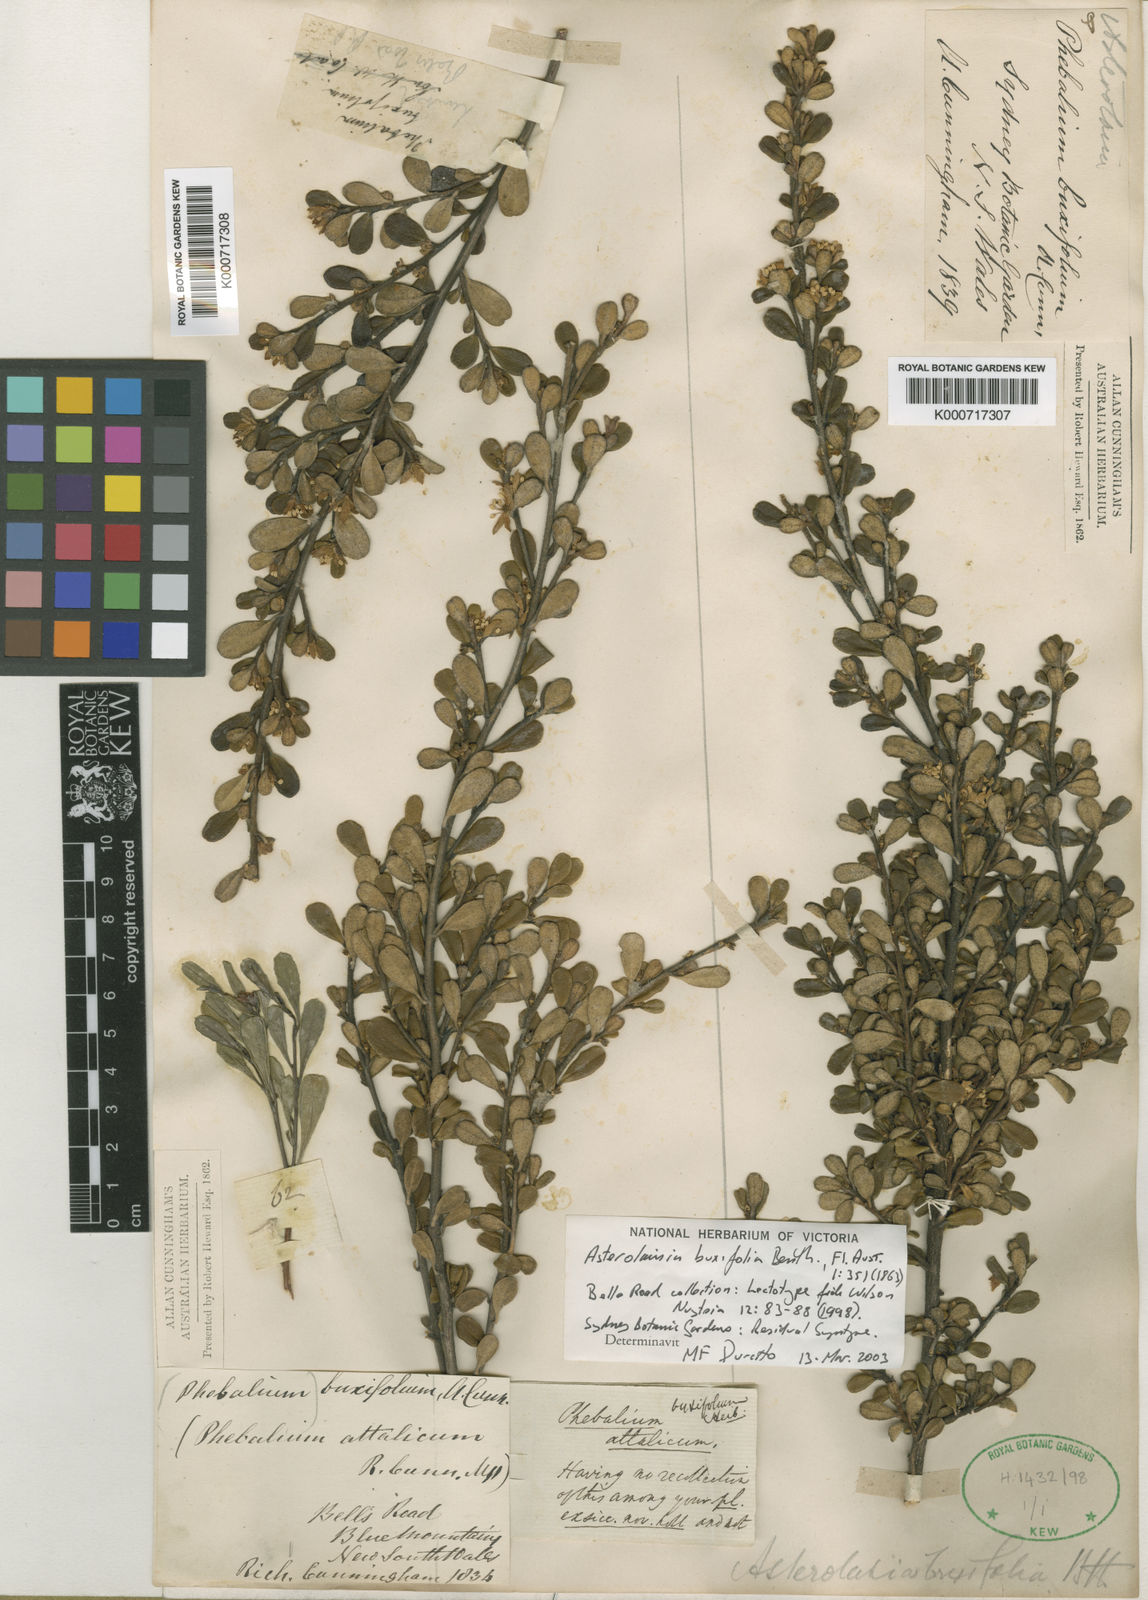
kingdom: Plantae
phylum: Tracheophyta
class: Magnoliopsida
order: Sapindales
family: Rutaceae
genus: Asterolasia
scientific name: Asterolasia buxifolia
